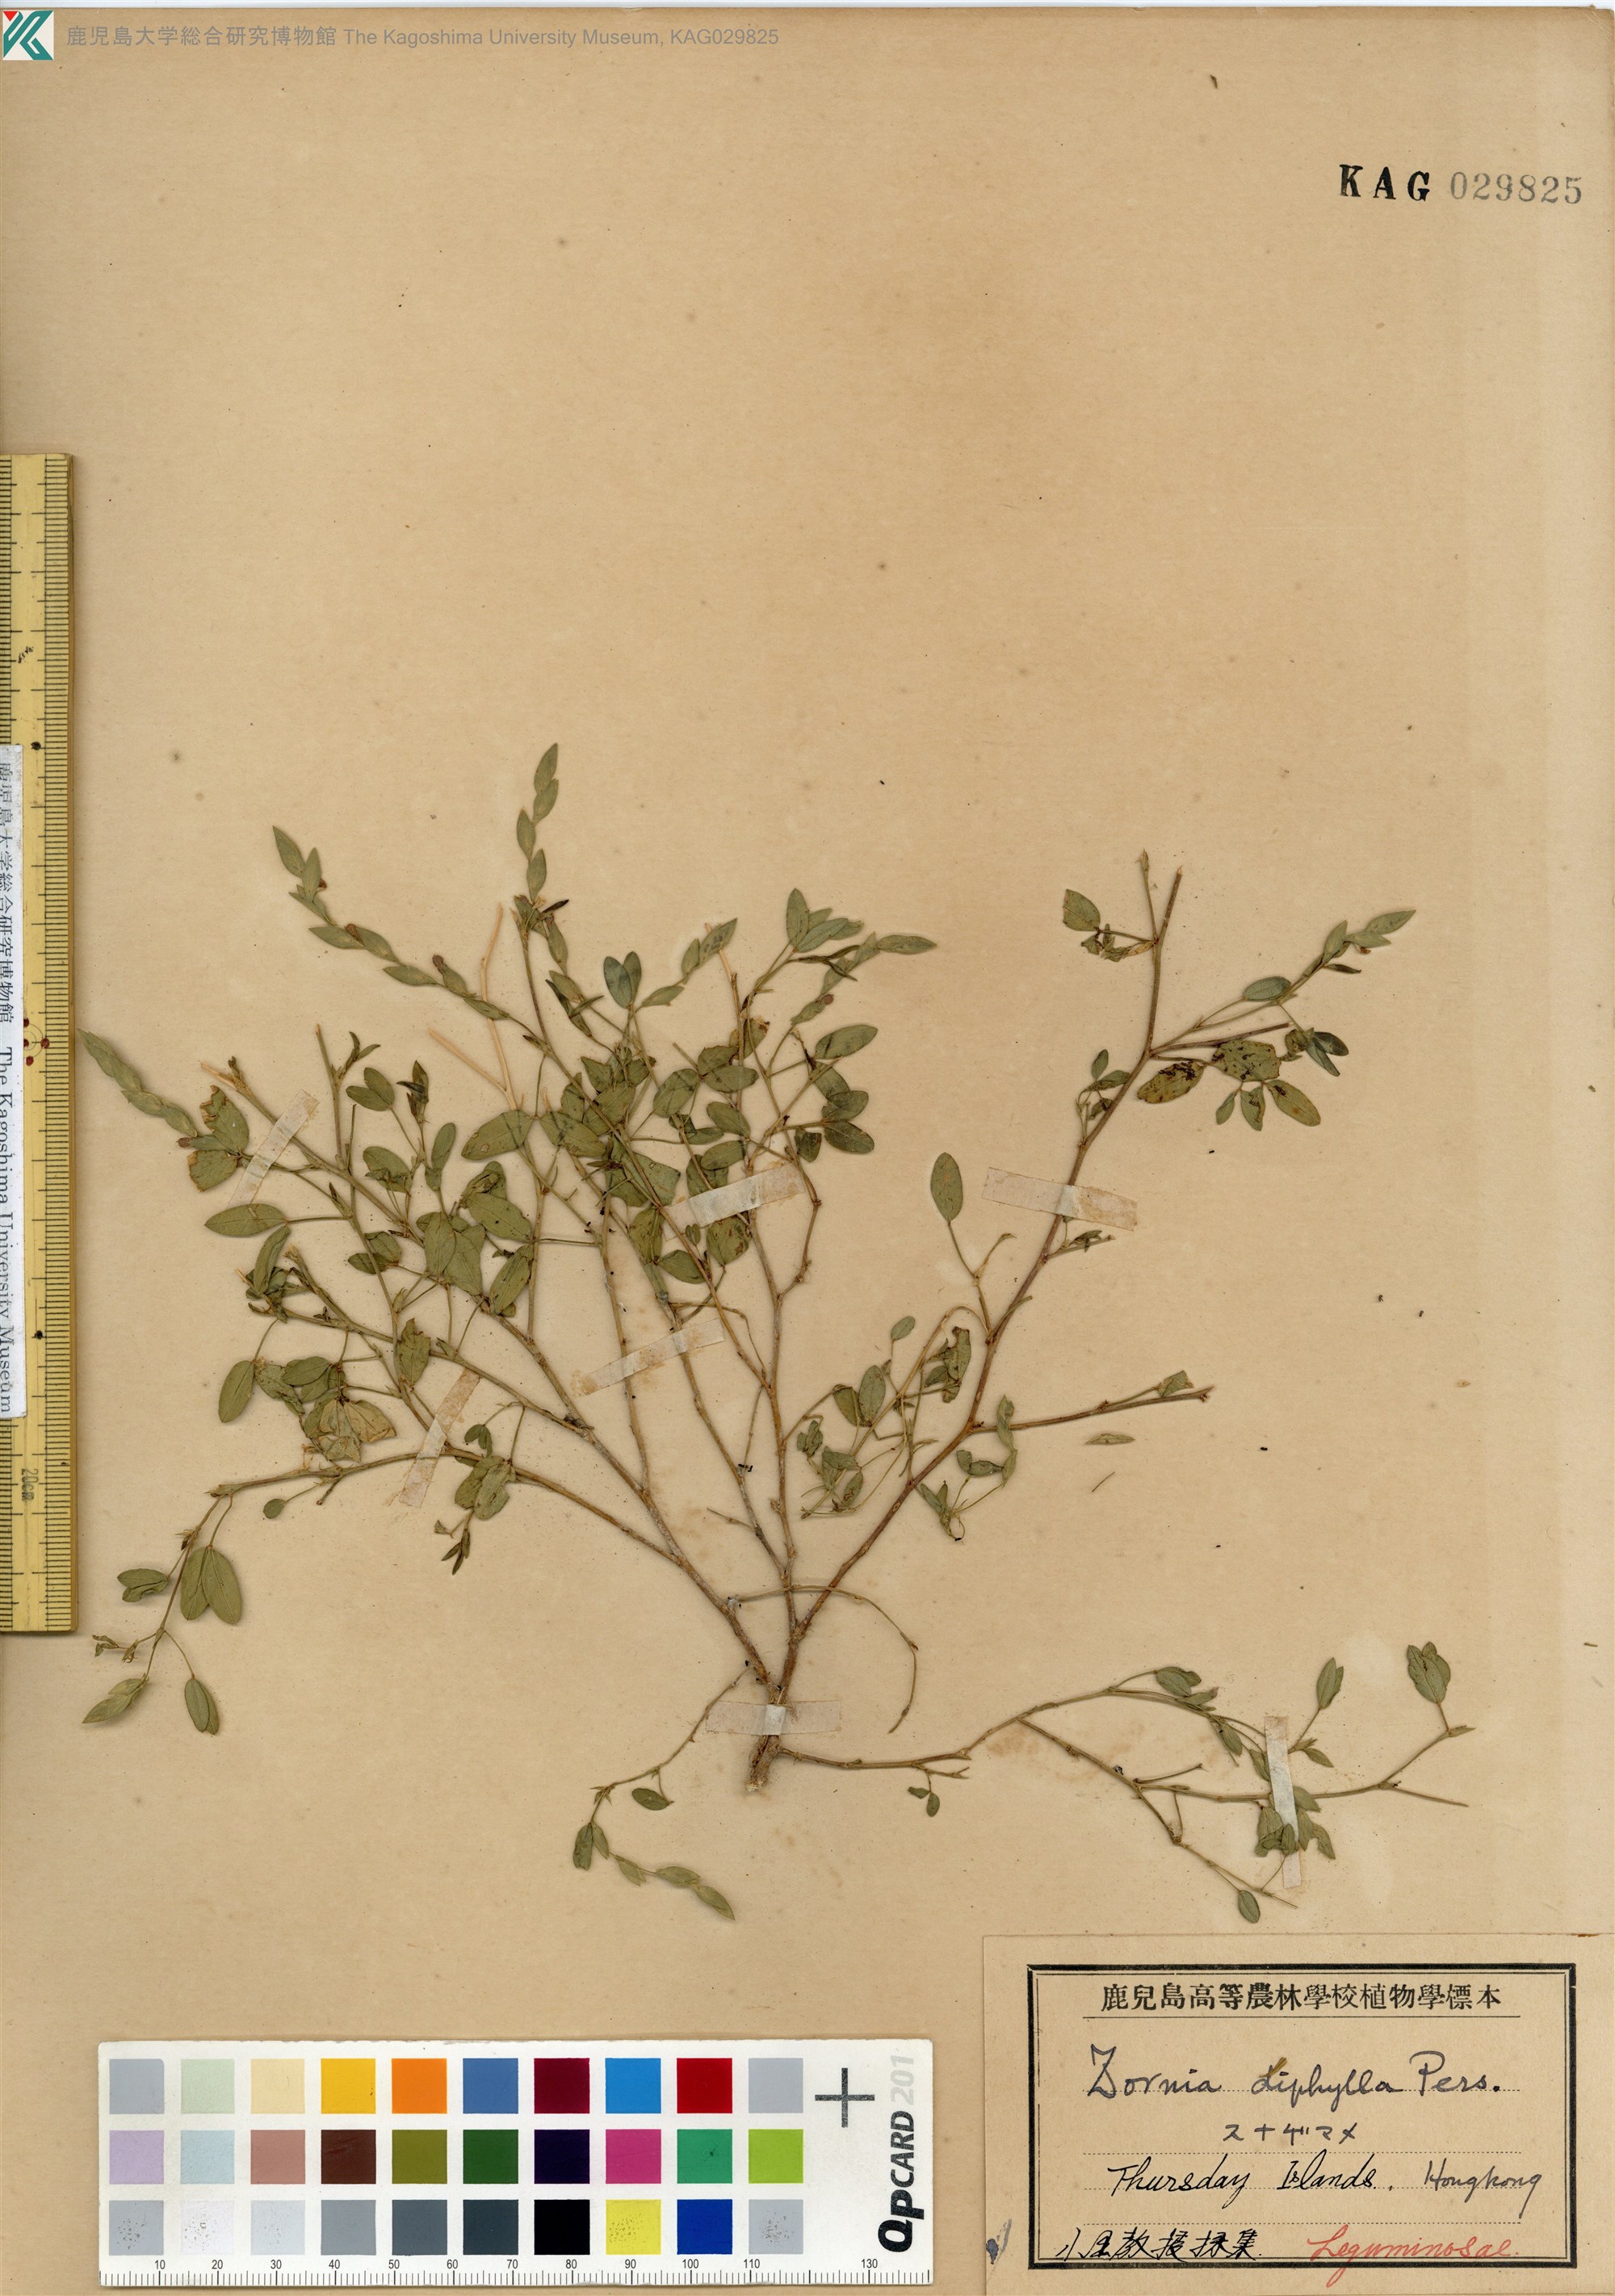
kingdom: Plantae
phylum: Tracheophyta
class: Magnoliopsida
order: Fabales
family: Fabaceae
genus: Zornia
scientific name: Zornia gibbosa
